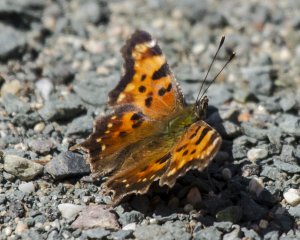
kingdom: Animalia
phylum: Arthropoda
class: Insecta
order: Lepidoptera
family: Nymphalidae
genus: Polygonia
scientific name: Polygonia faunus
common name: Green Comma
